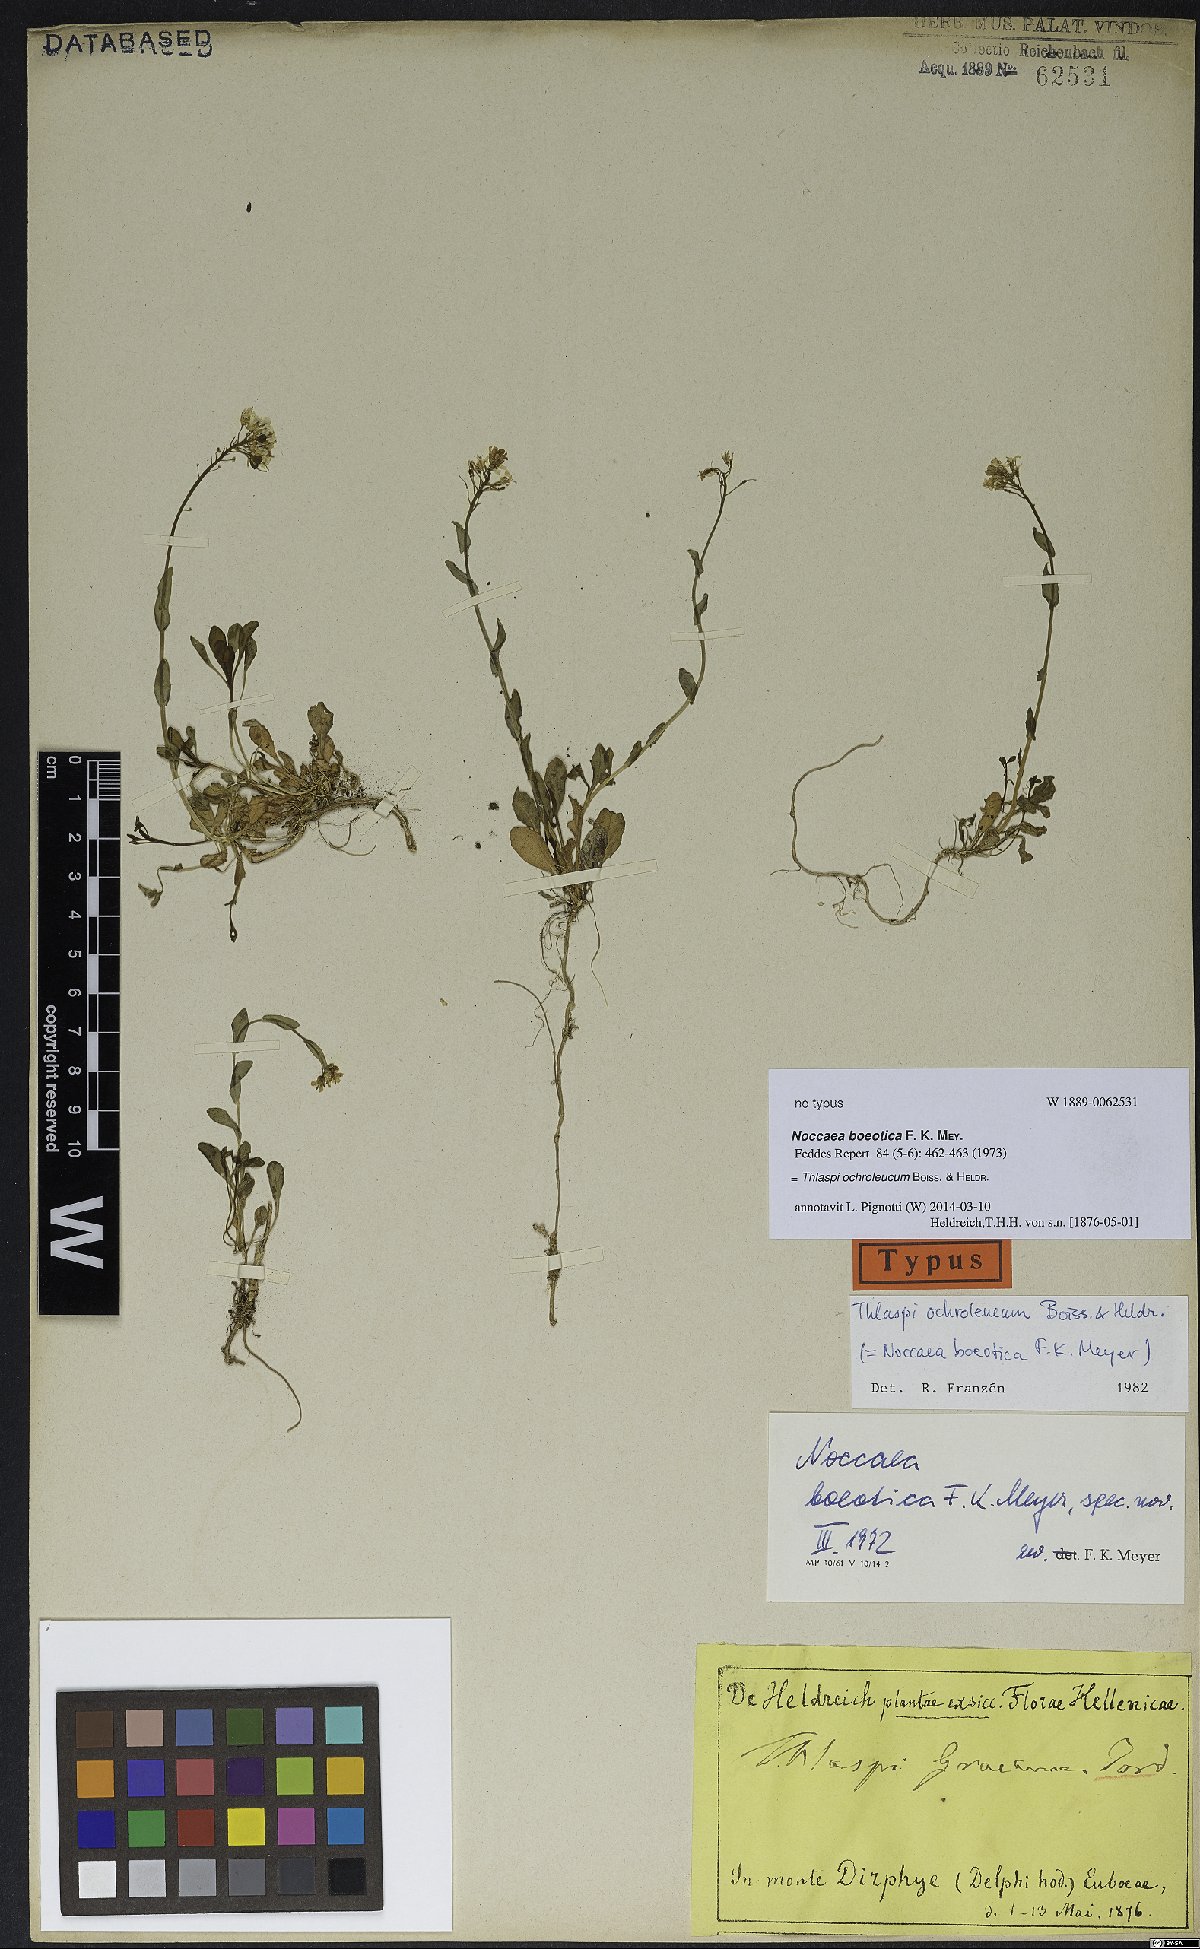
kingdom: Plantae
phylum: Tracheophyta
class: Magnoliopsida
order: Brassicales
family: Brassicaceae
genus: Noccaea
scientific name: Noccaea ochroleuca
